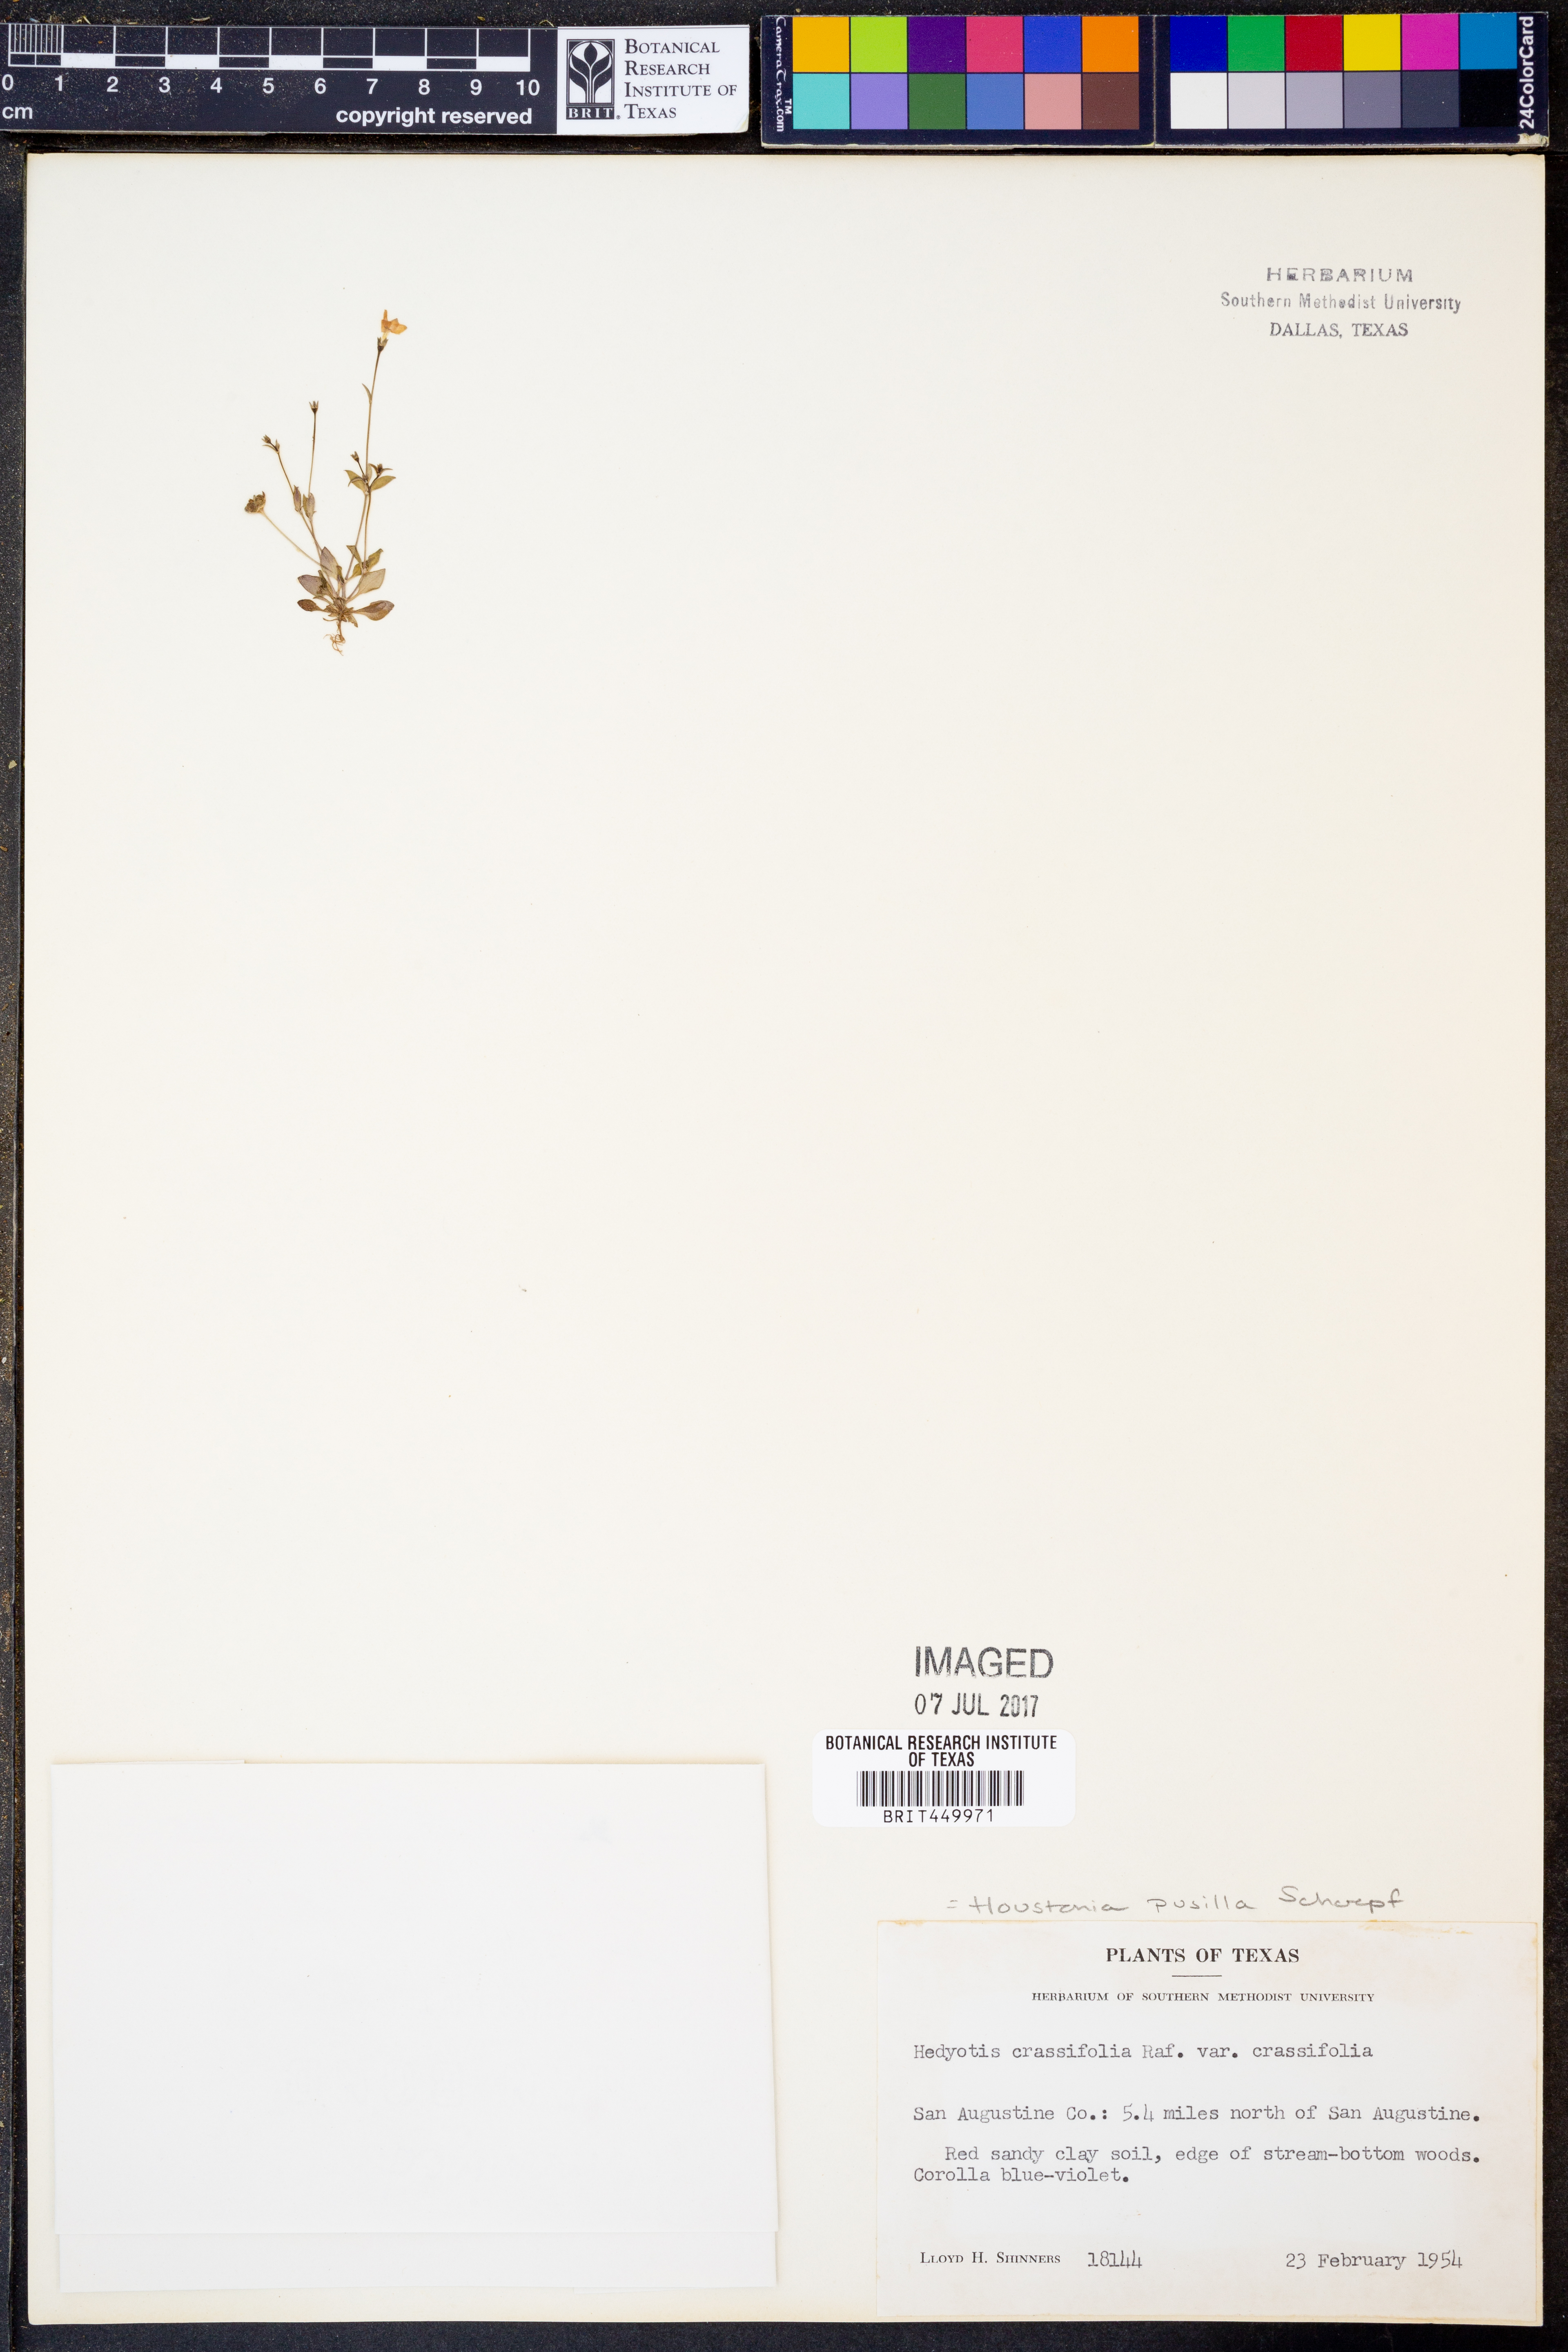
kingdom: Plantae
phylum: Tracheophyta
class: Magnoliopsida
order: Gentianales
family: Rubiaceae
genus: Hedyotis
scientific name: Hedyotis crassifolia
